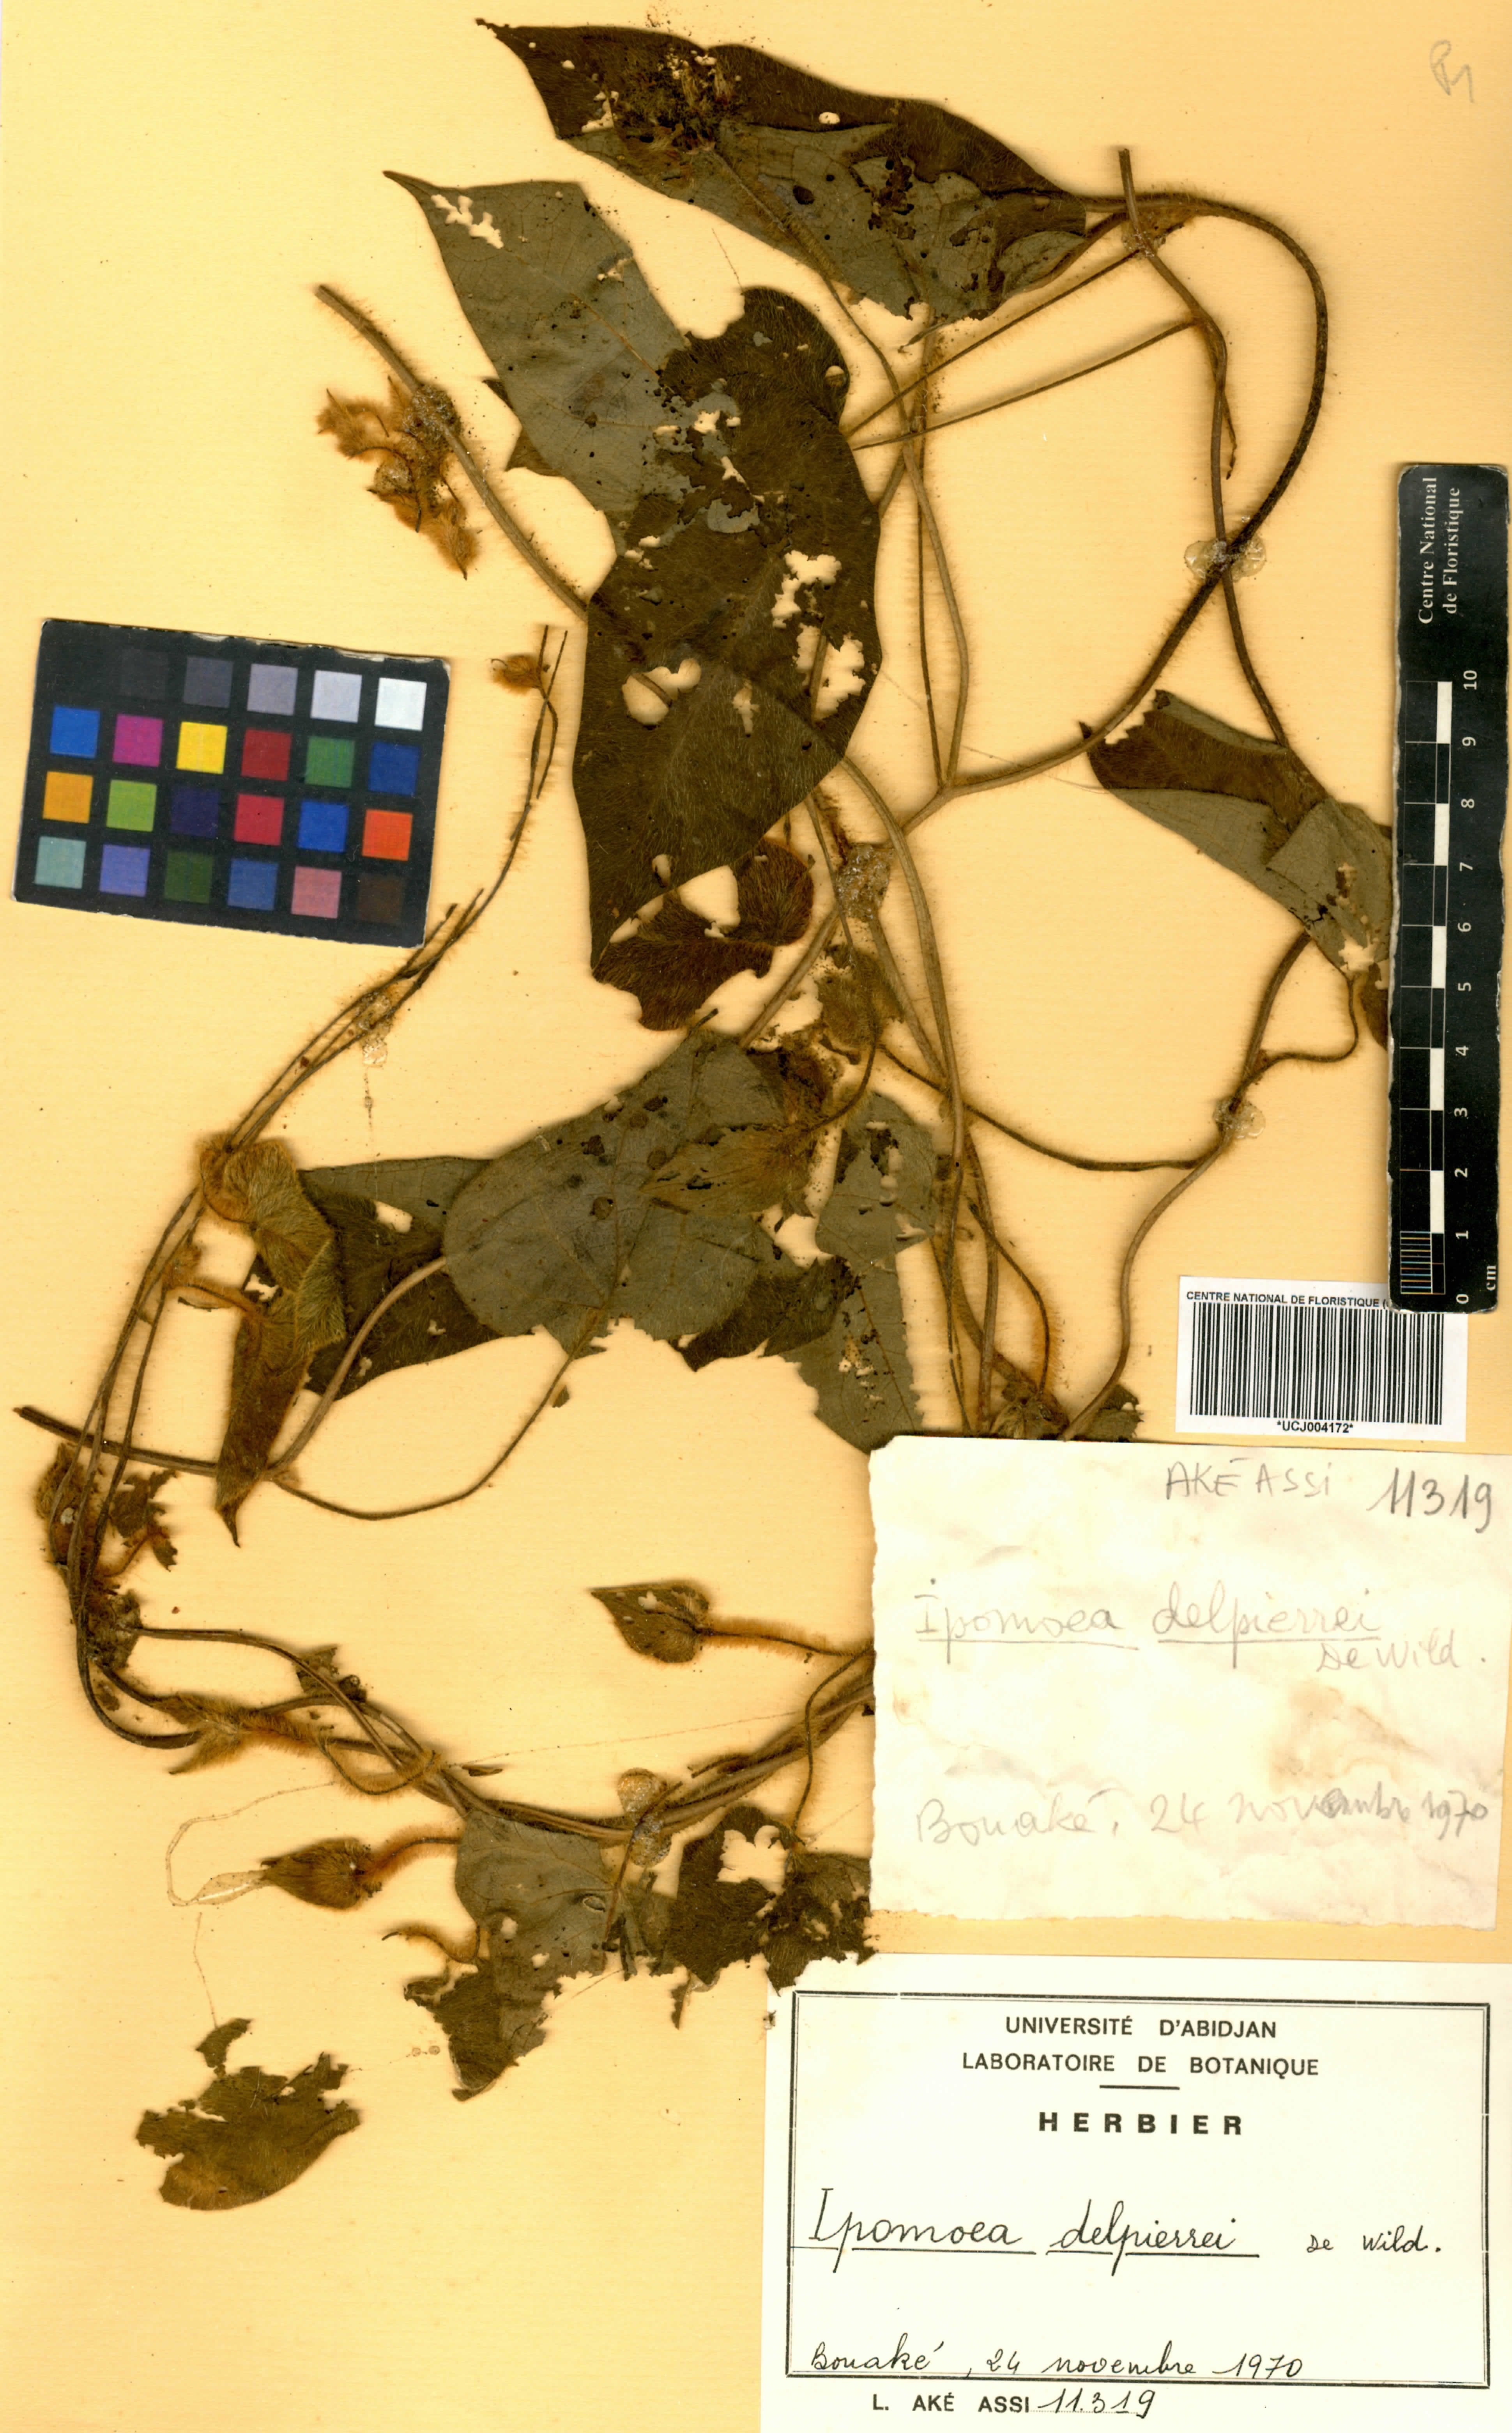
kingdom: Plantae
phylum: Tracheophyta
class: Magnoliopsida
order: Solanales
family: Convolvulaceae
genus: Ipomoea
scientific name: Ipomoea delpierrei
